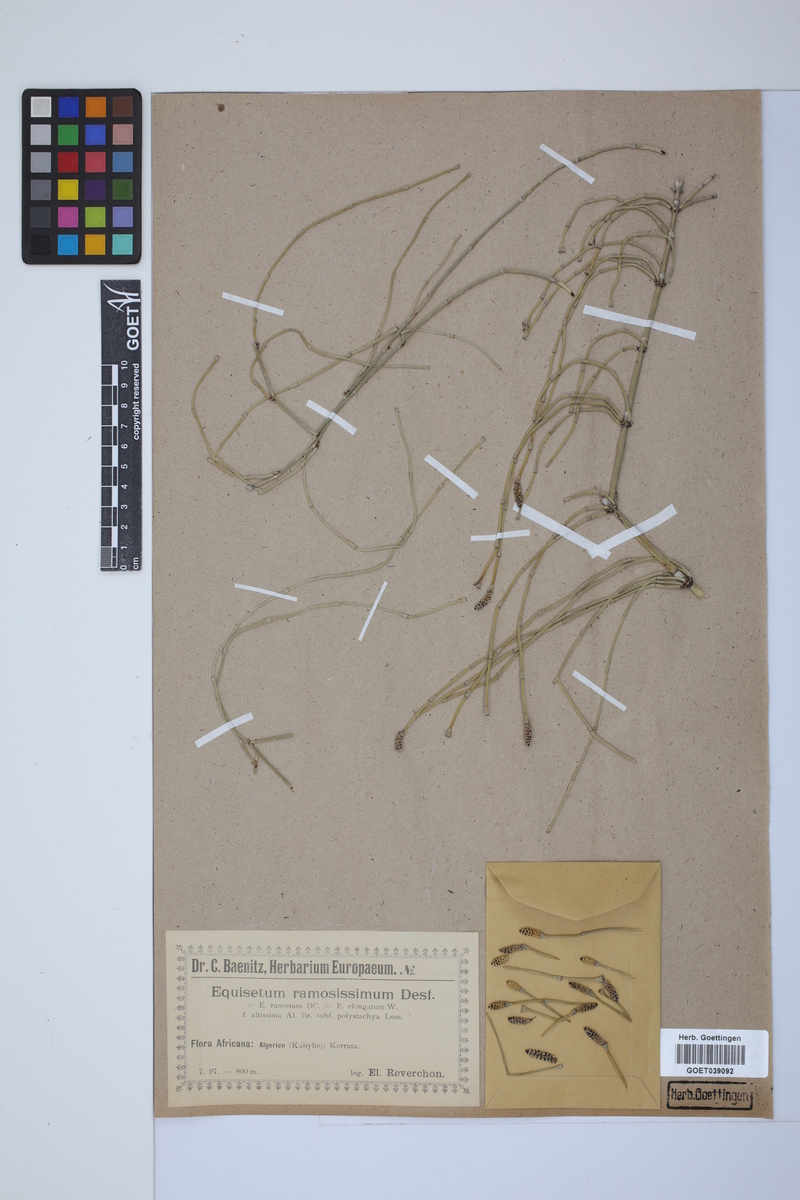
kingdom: Plantae
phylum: Tracheophyta
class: Polypodiopsida
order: Equisetales
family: Equisetaceae
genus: Equisetum
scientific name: Equisetum giganteum
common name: Giant horsetail
